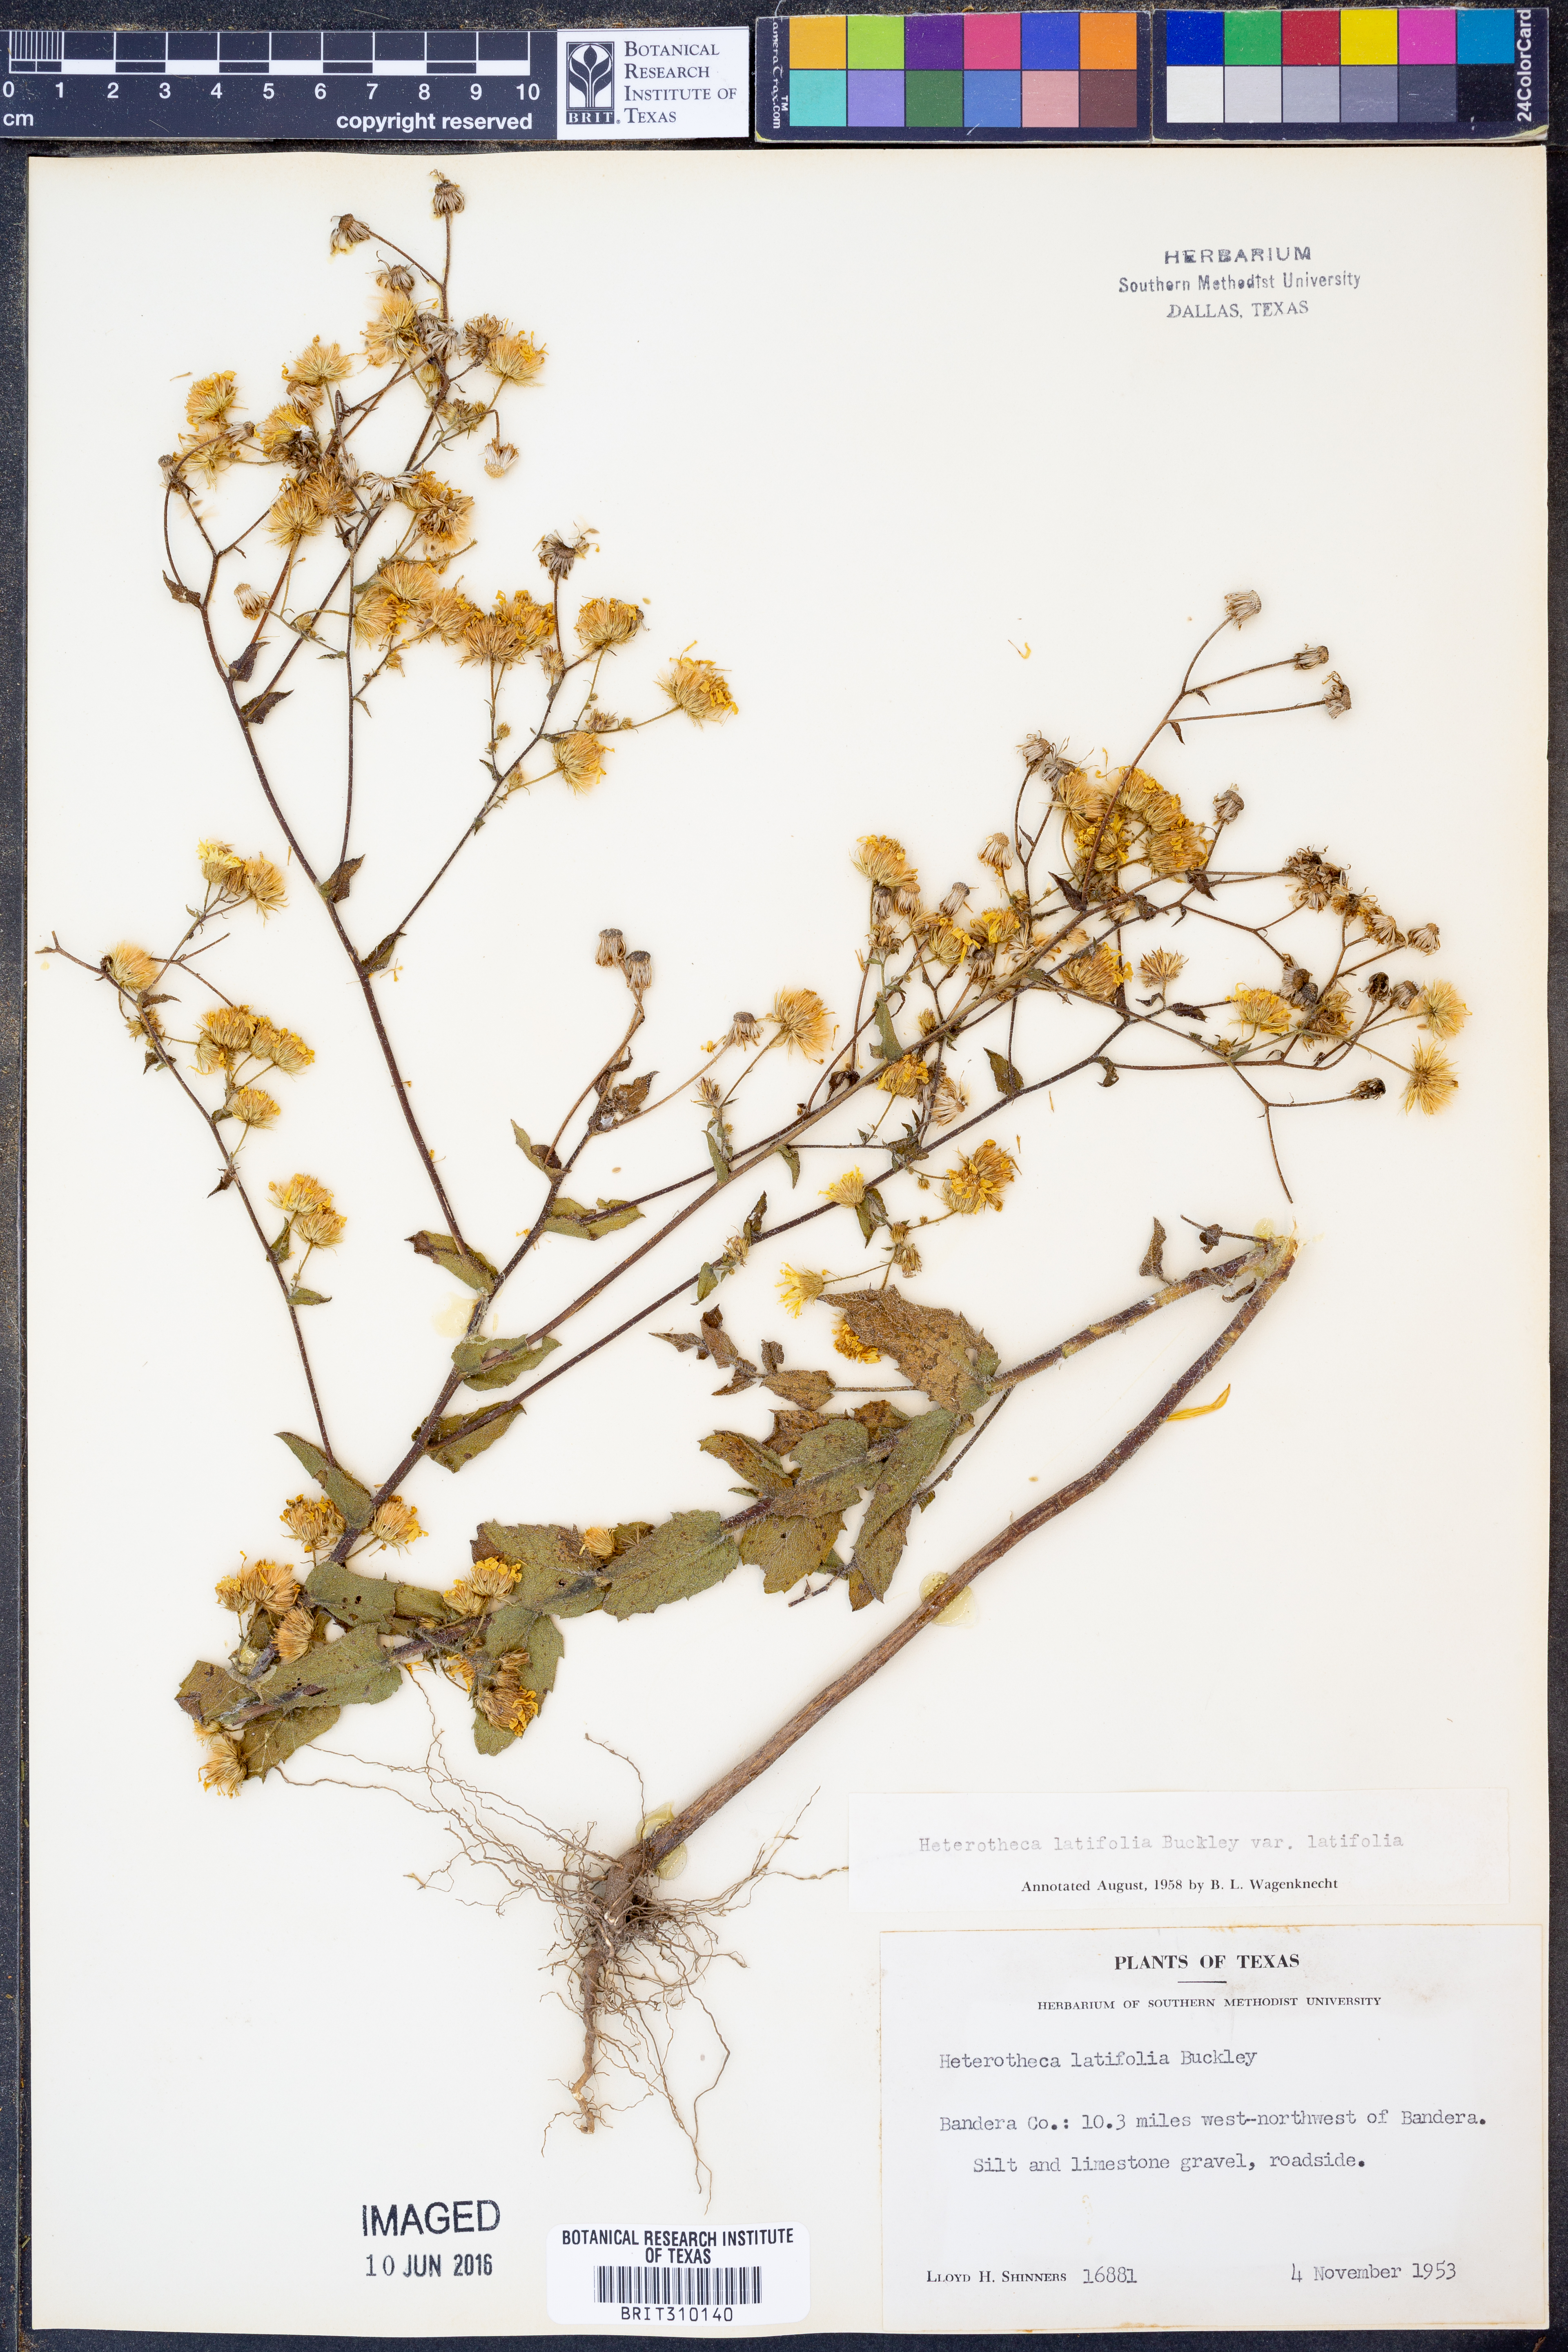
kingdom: Plantae
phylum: Tracheophyta
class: Magnoliopsida
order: Asterales
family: Asteraceae
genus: Heterotheca
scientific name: Heterotheca subaxillaris
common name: Camphorweed
